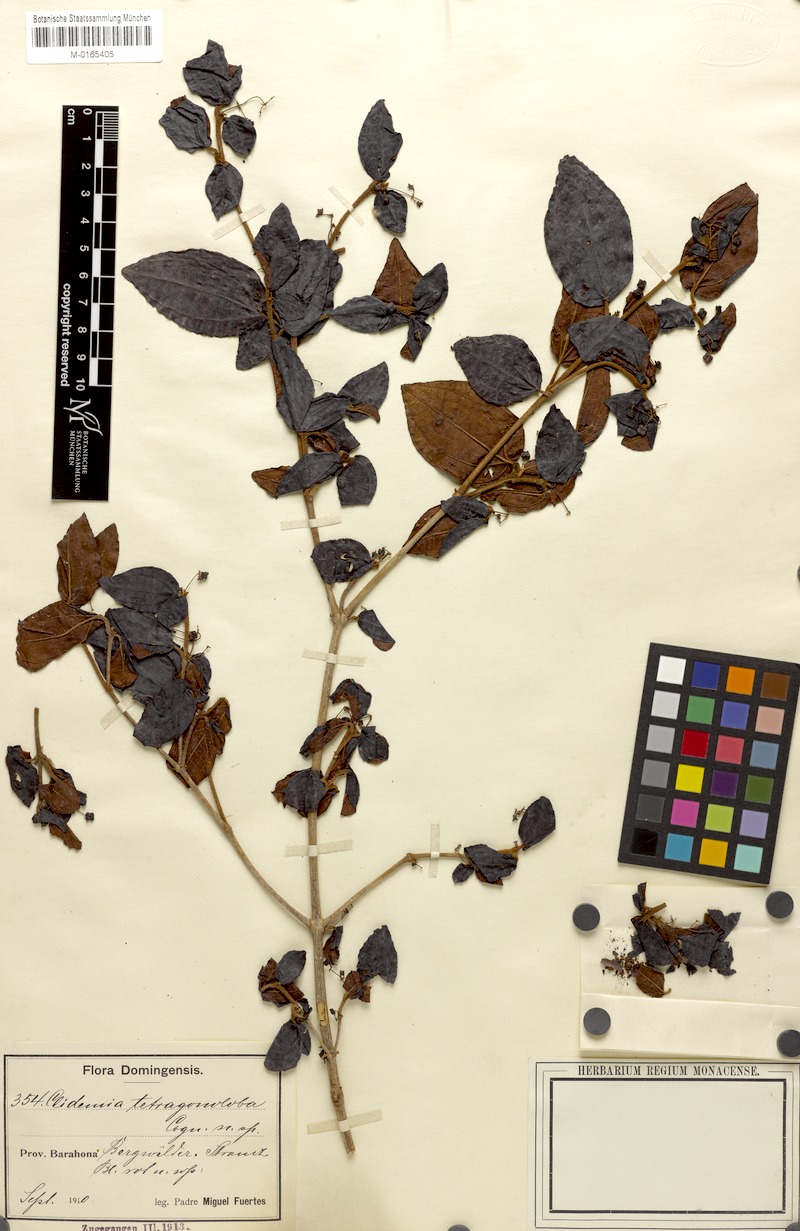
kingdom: Plantae
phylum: Tracheophyta
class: Magnoliopsida
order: Myrtales
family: Melastomataceae
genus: Miconia
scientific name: Miconia tetragonoloba
